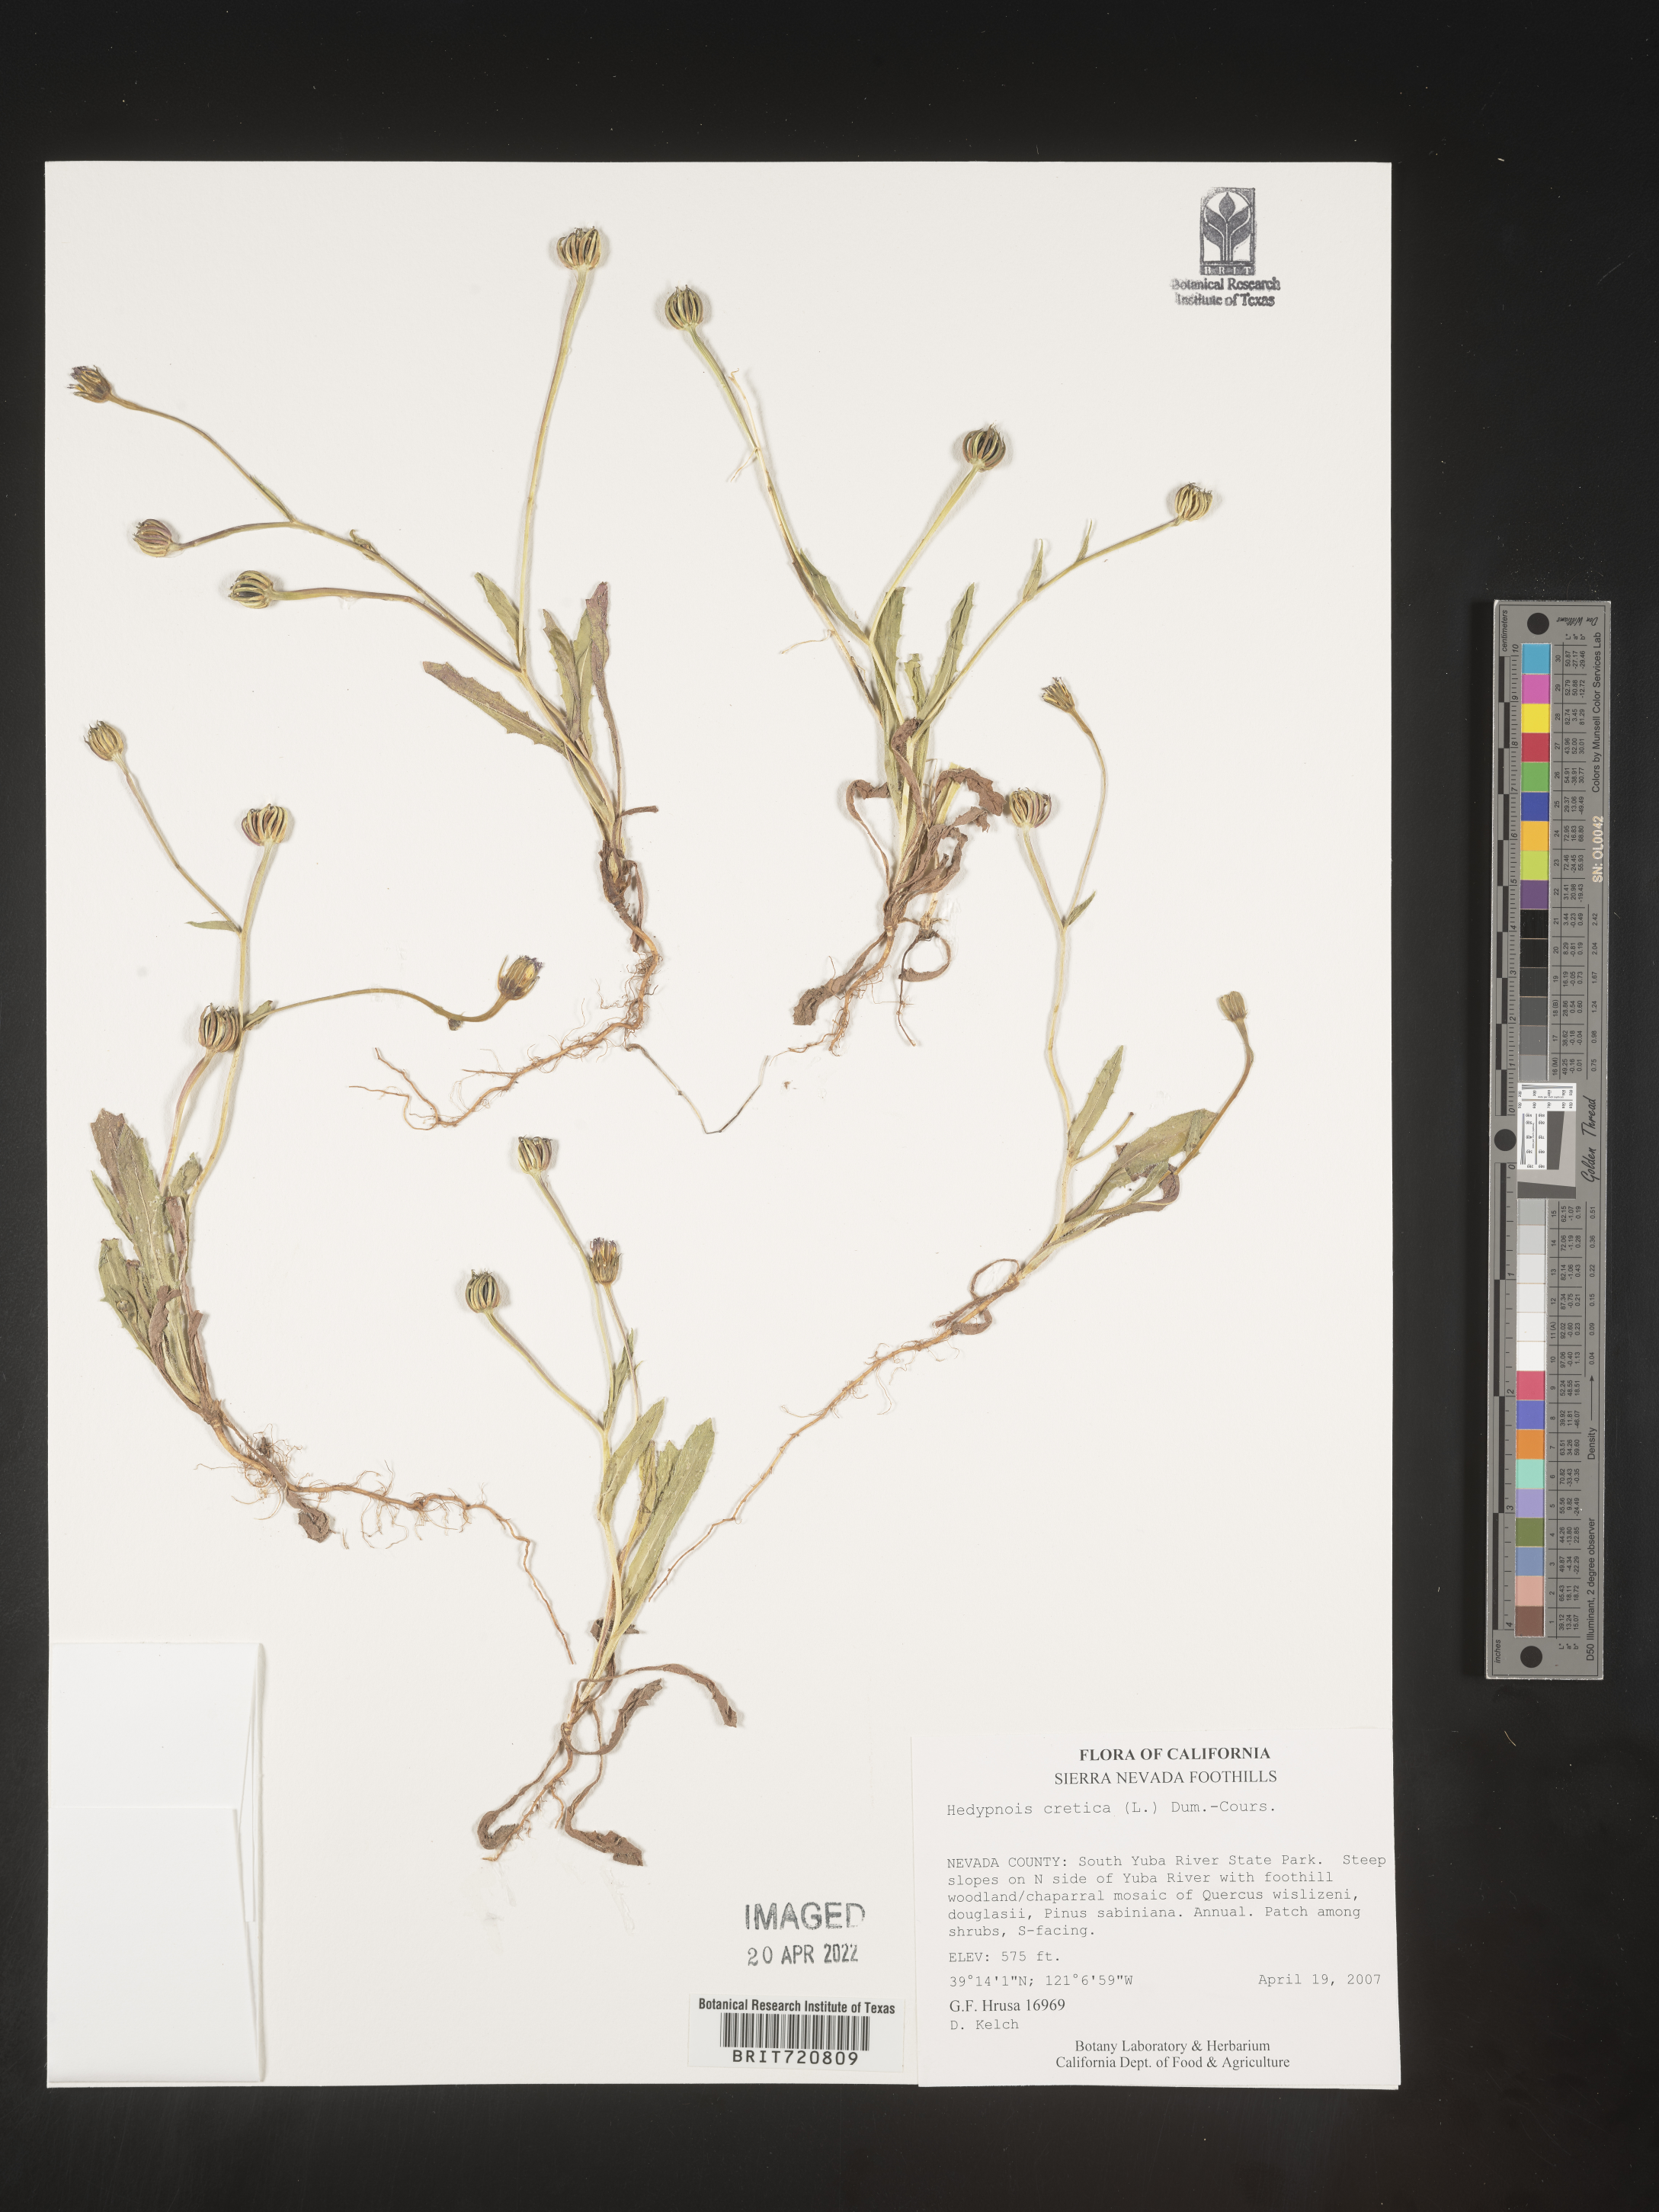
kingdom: Plantae
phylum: Tracheophyta
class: Magnoliopsida
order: Asterales
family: Asteraceae
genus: Hedypnois
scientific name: Hedypnois
